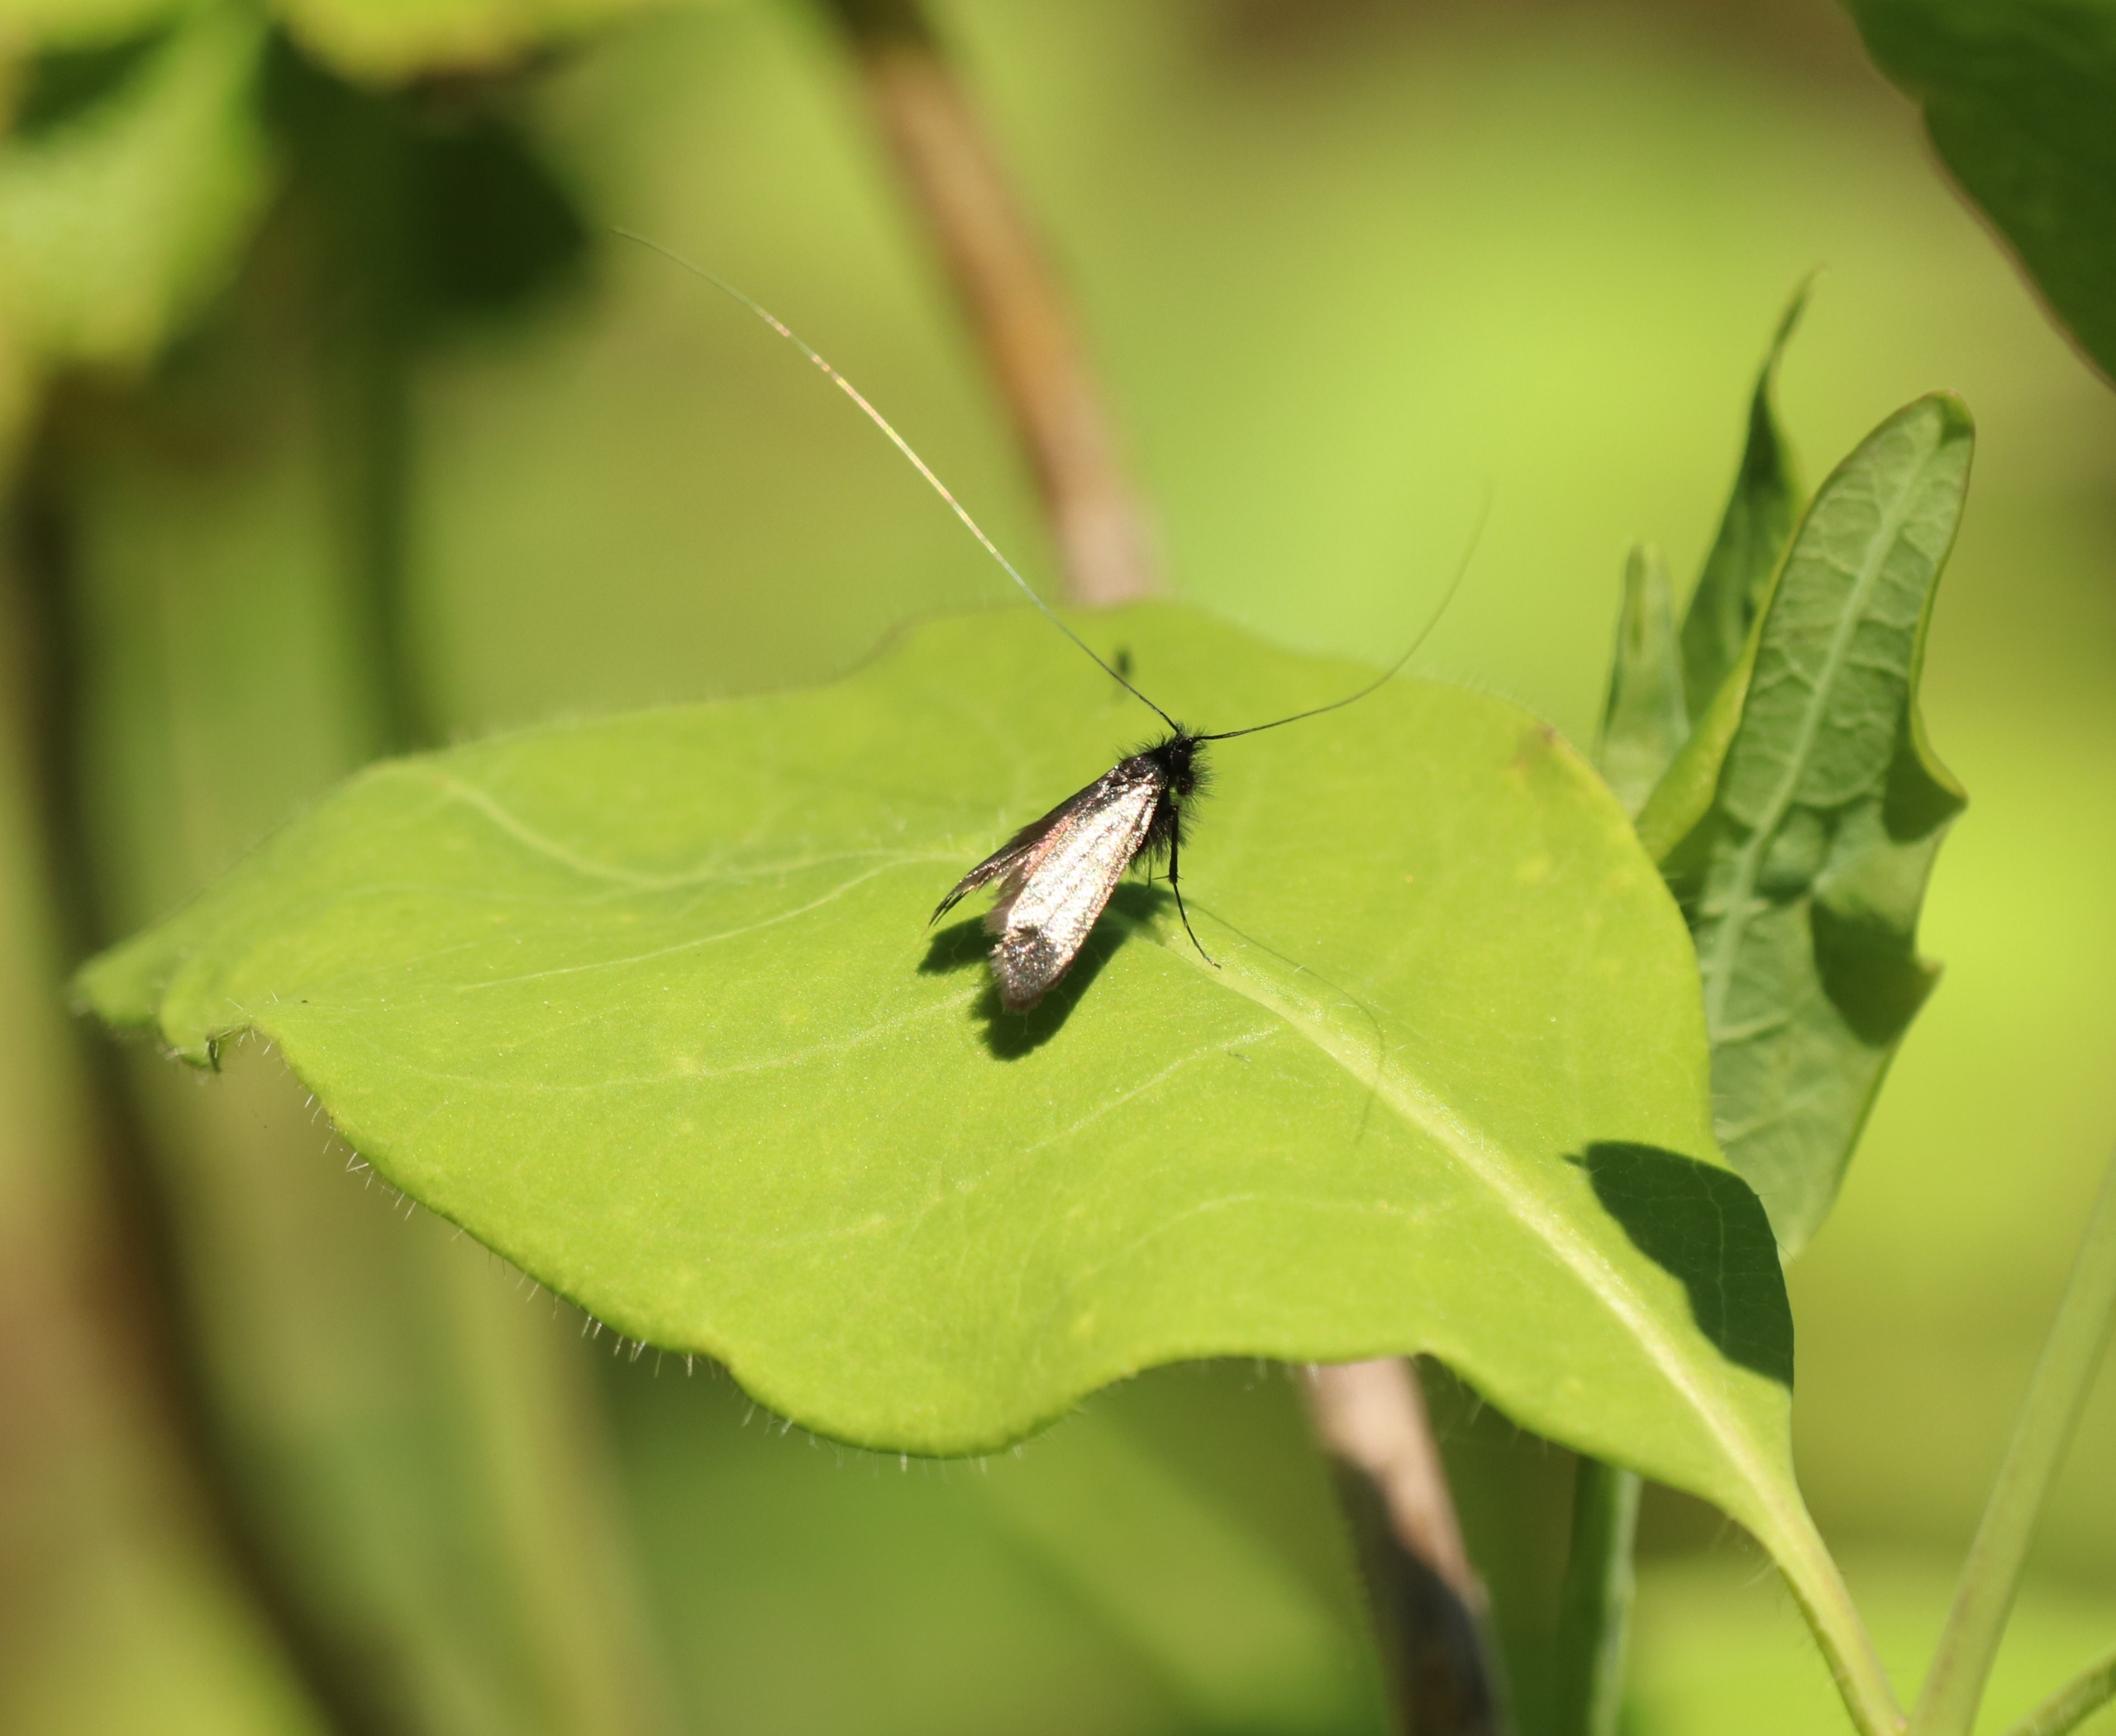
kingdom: Animalia
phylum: Arthropoda
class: Insecta
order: Lepidoptera
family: Adelidae
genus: Adela
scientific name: Adela viridella
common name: Egelanghornsmøl
